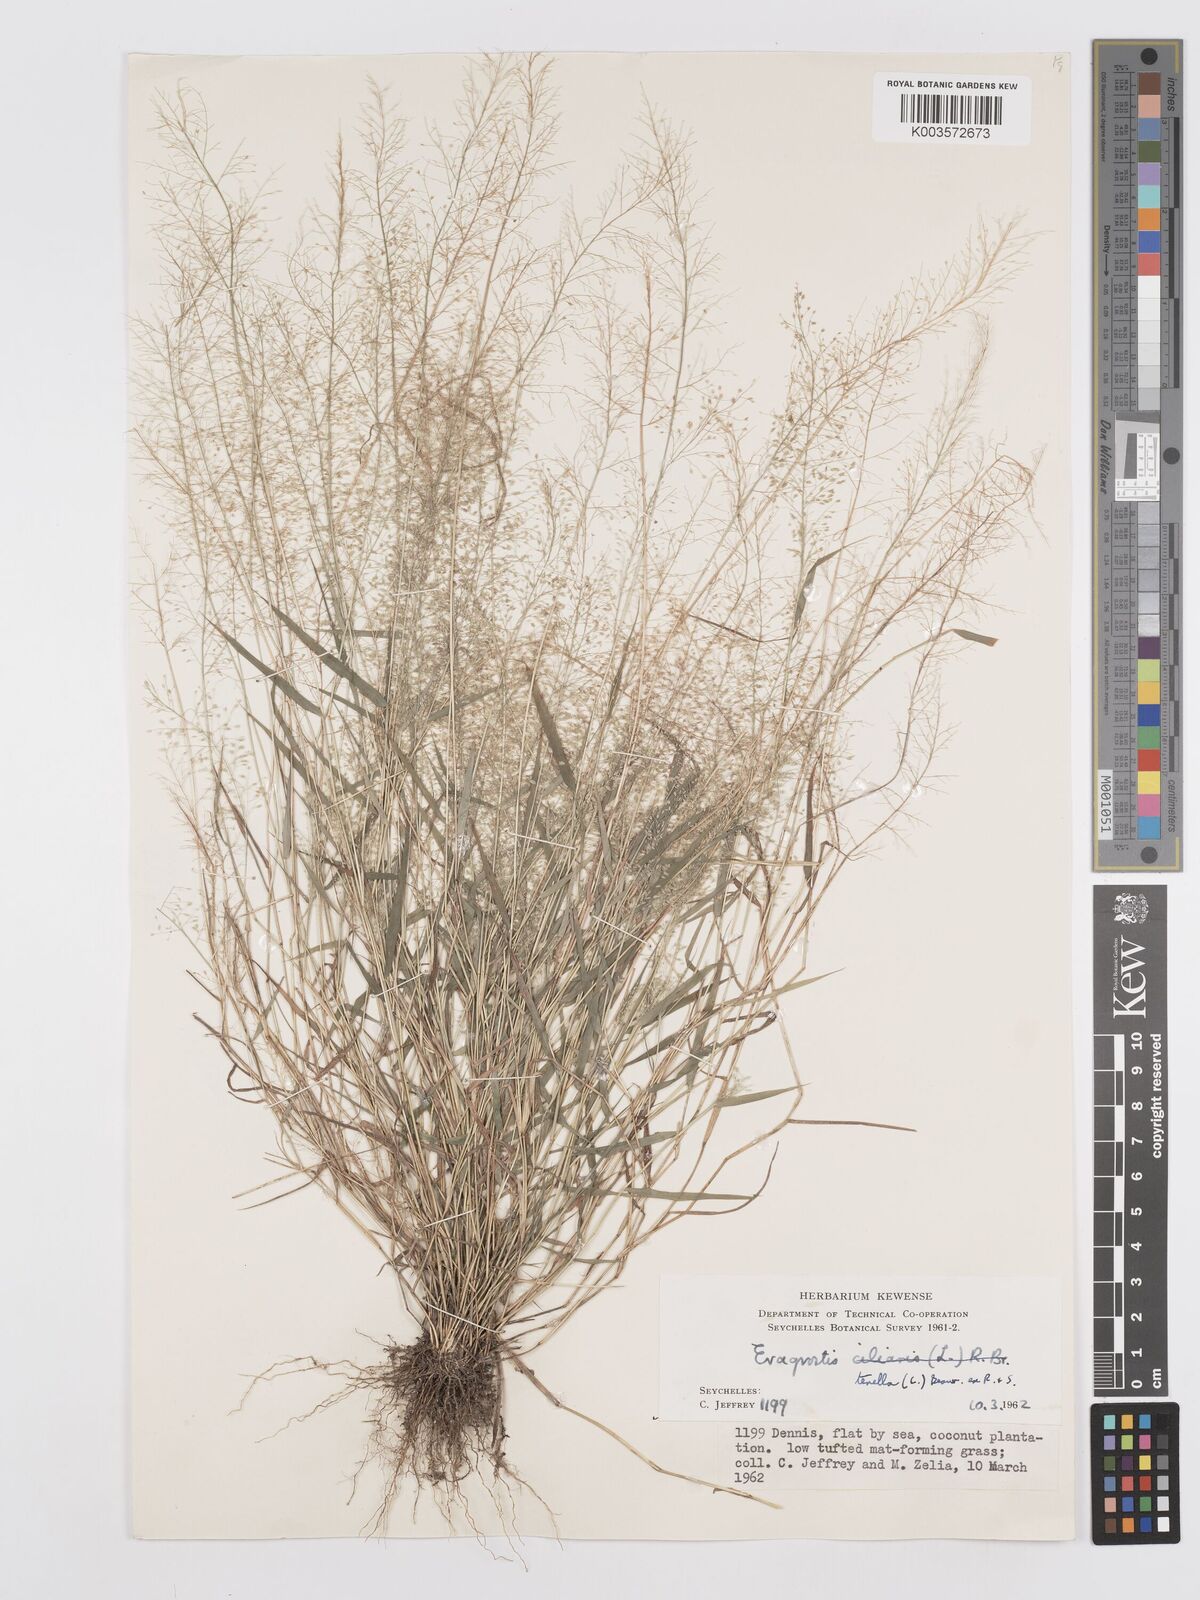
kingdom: Plantae
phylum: Tracheophyta
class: Liliopsida
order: Poales
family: Poaceae
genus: Eragrostis
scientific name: Eragrostis tenella
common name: Japanese lovegrass
